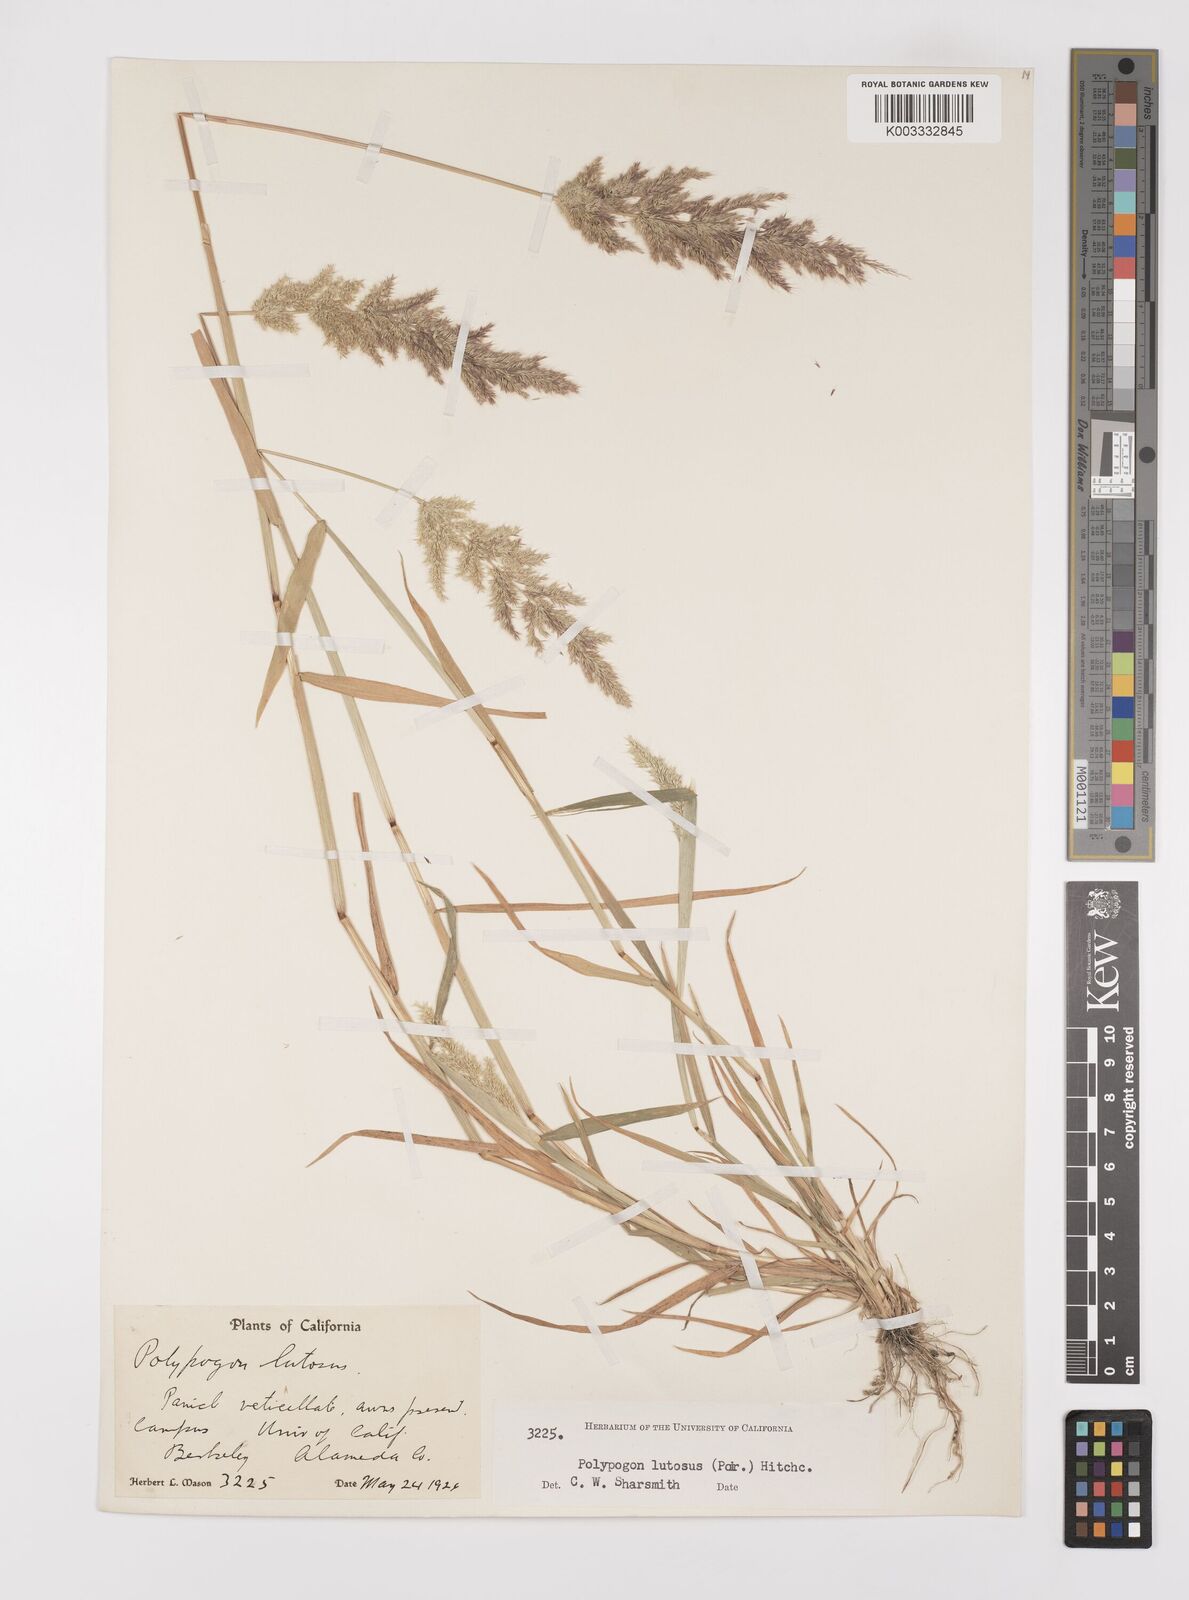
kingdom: Plantae
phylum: Tracheophyta
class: Liliopsida
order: Poales
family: Poaceae
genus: Polypogon
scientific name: Polypogon interruptus
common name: Ditch polypogon
